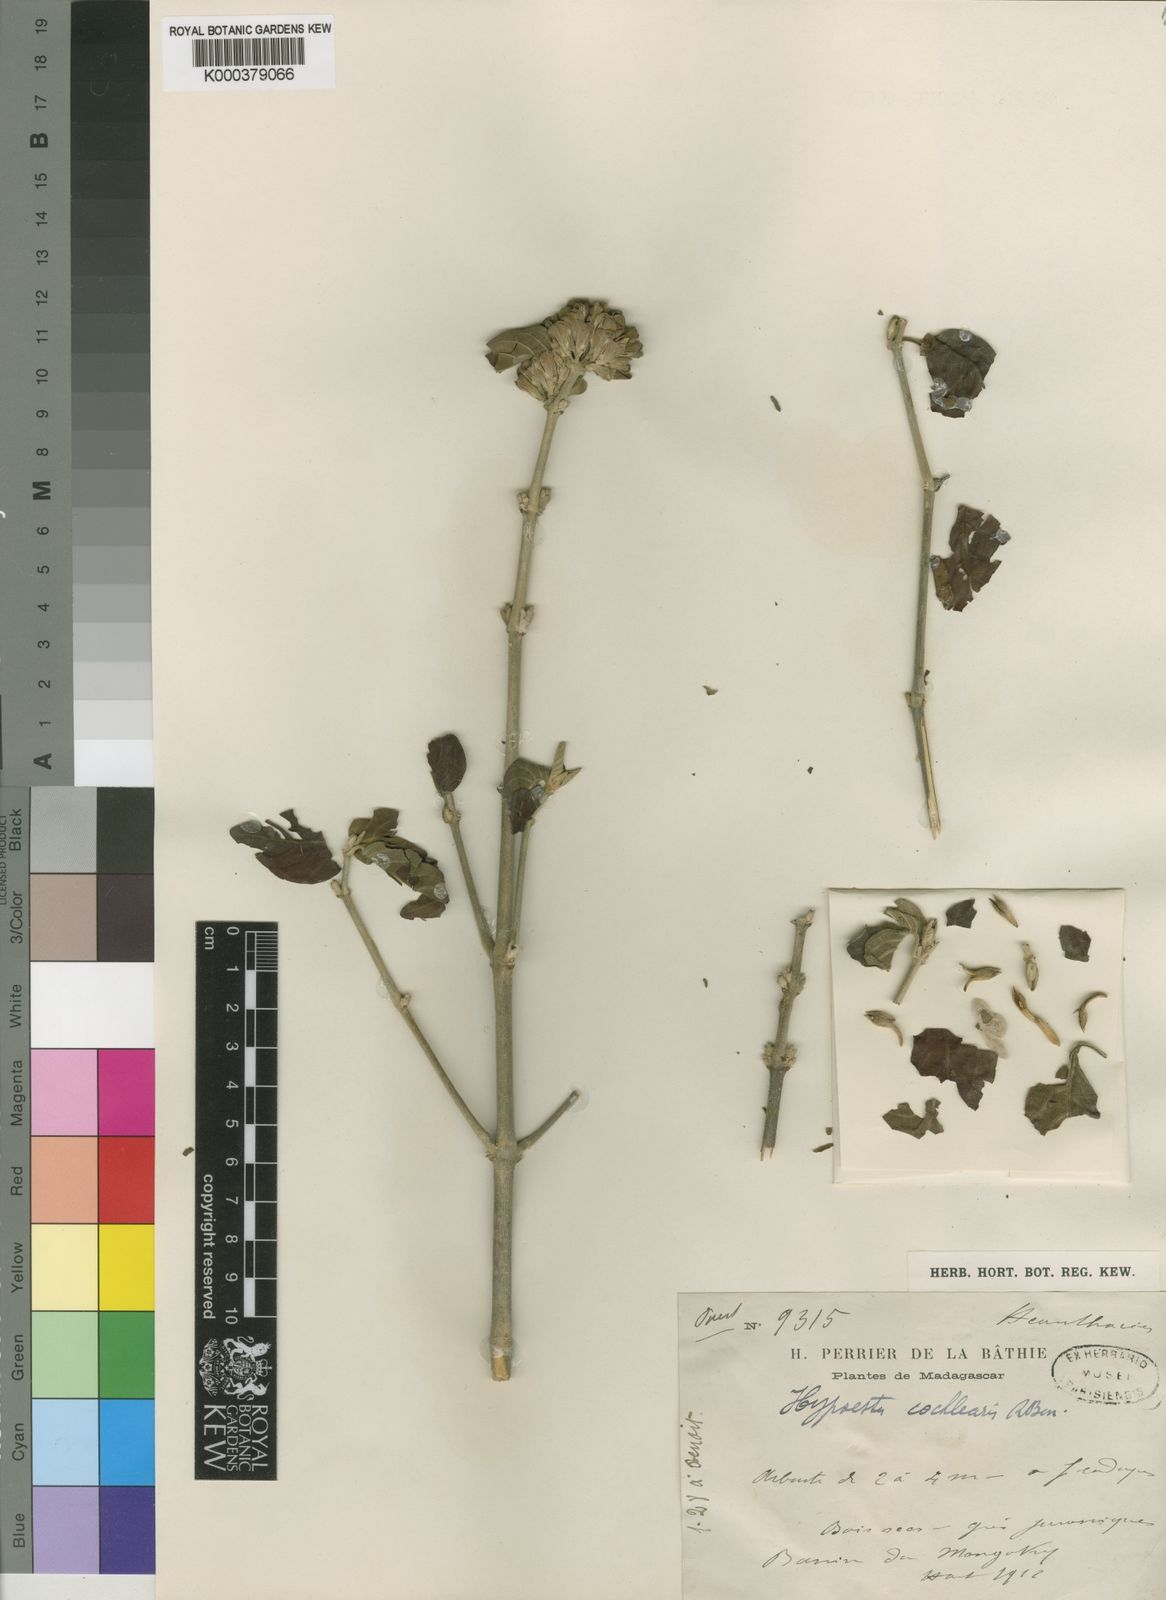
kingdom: Plantae
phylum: Tracheophyta
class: Magnoliopsida
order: Lamiales
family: Acanthaceae
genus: Hypoestes
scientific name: Hypoestes cochlearia
